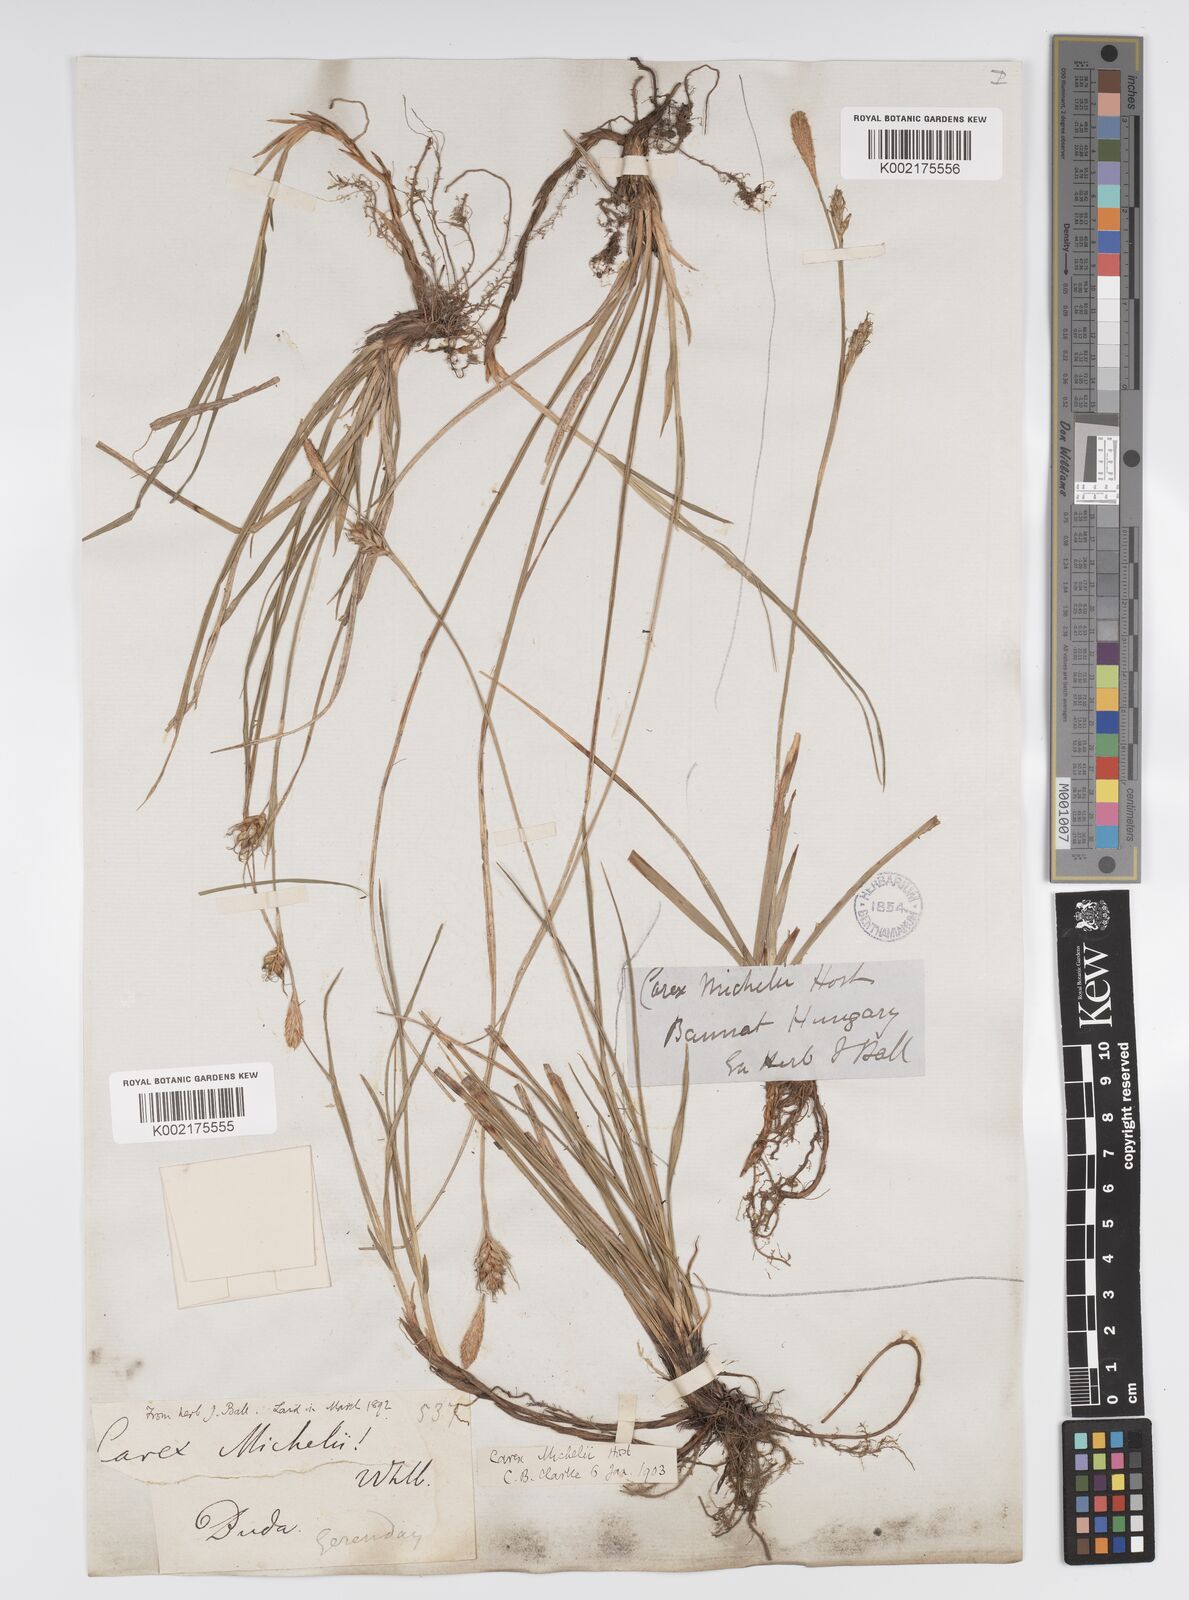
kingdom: Plantae
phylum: Tracheophyta
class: Liliopsida
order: Poales
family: Cyperaceae
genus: Carex
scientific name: Carex michelii
